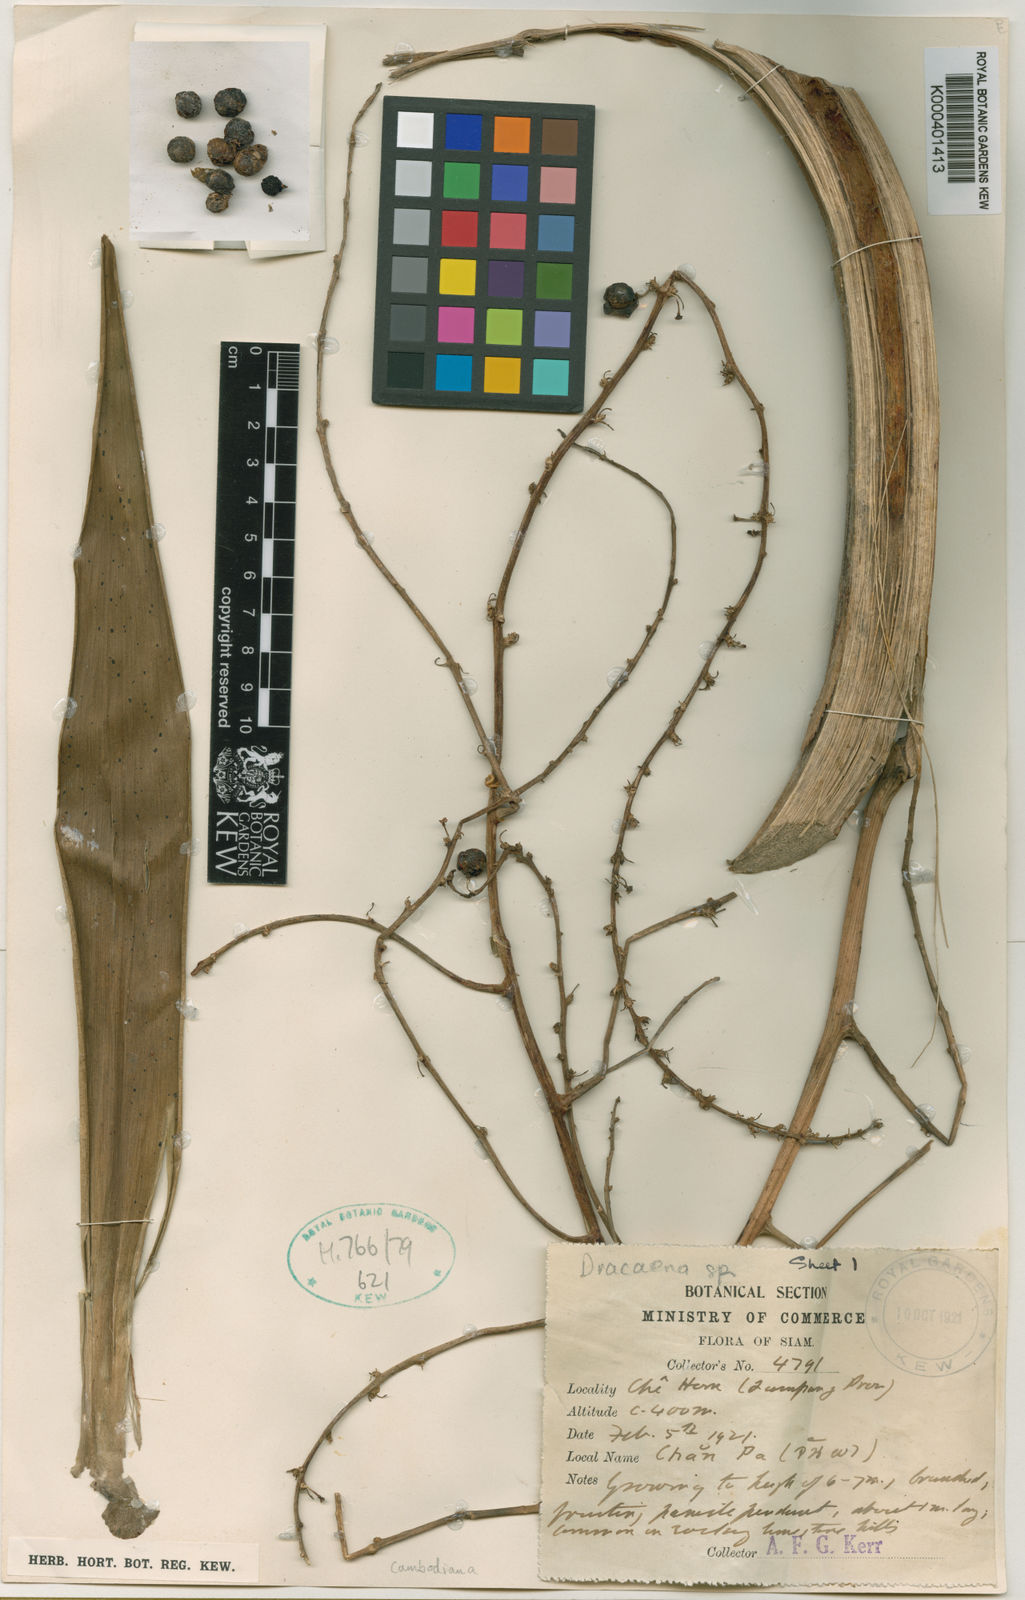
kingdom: Plantae
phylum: Tracheophyta
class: Liliopsida
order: Asparagales
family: Asparagaceae
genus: Dracaena
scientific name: Dracaena cambodiana
